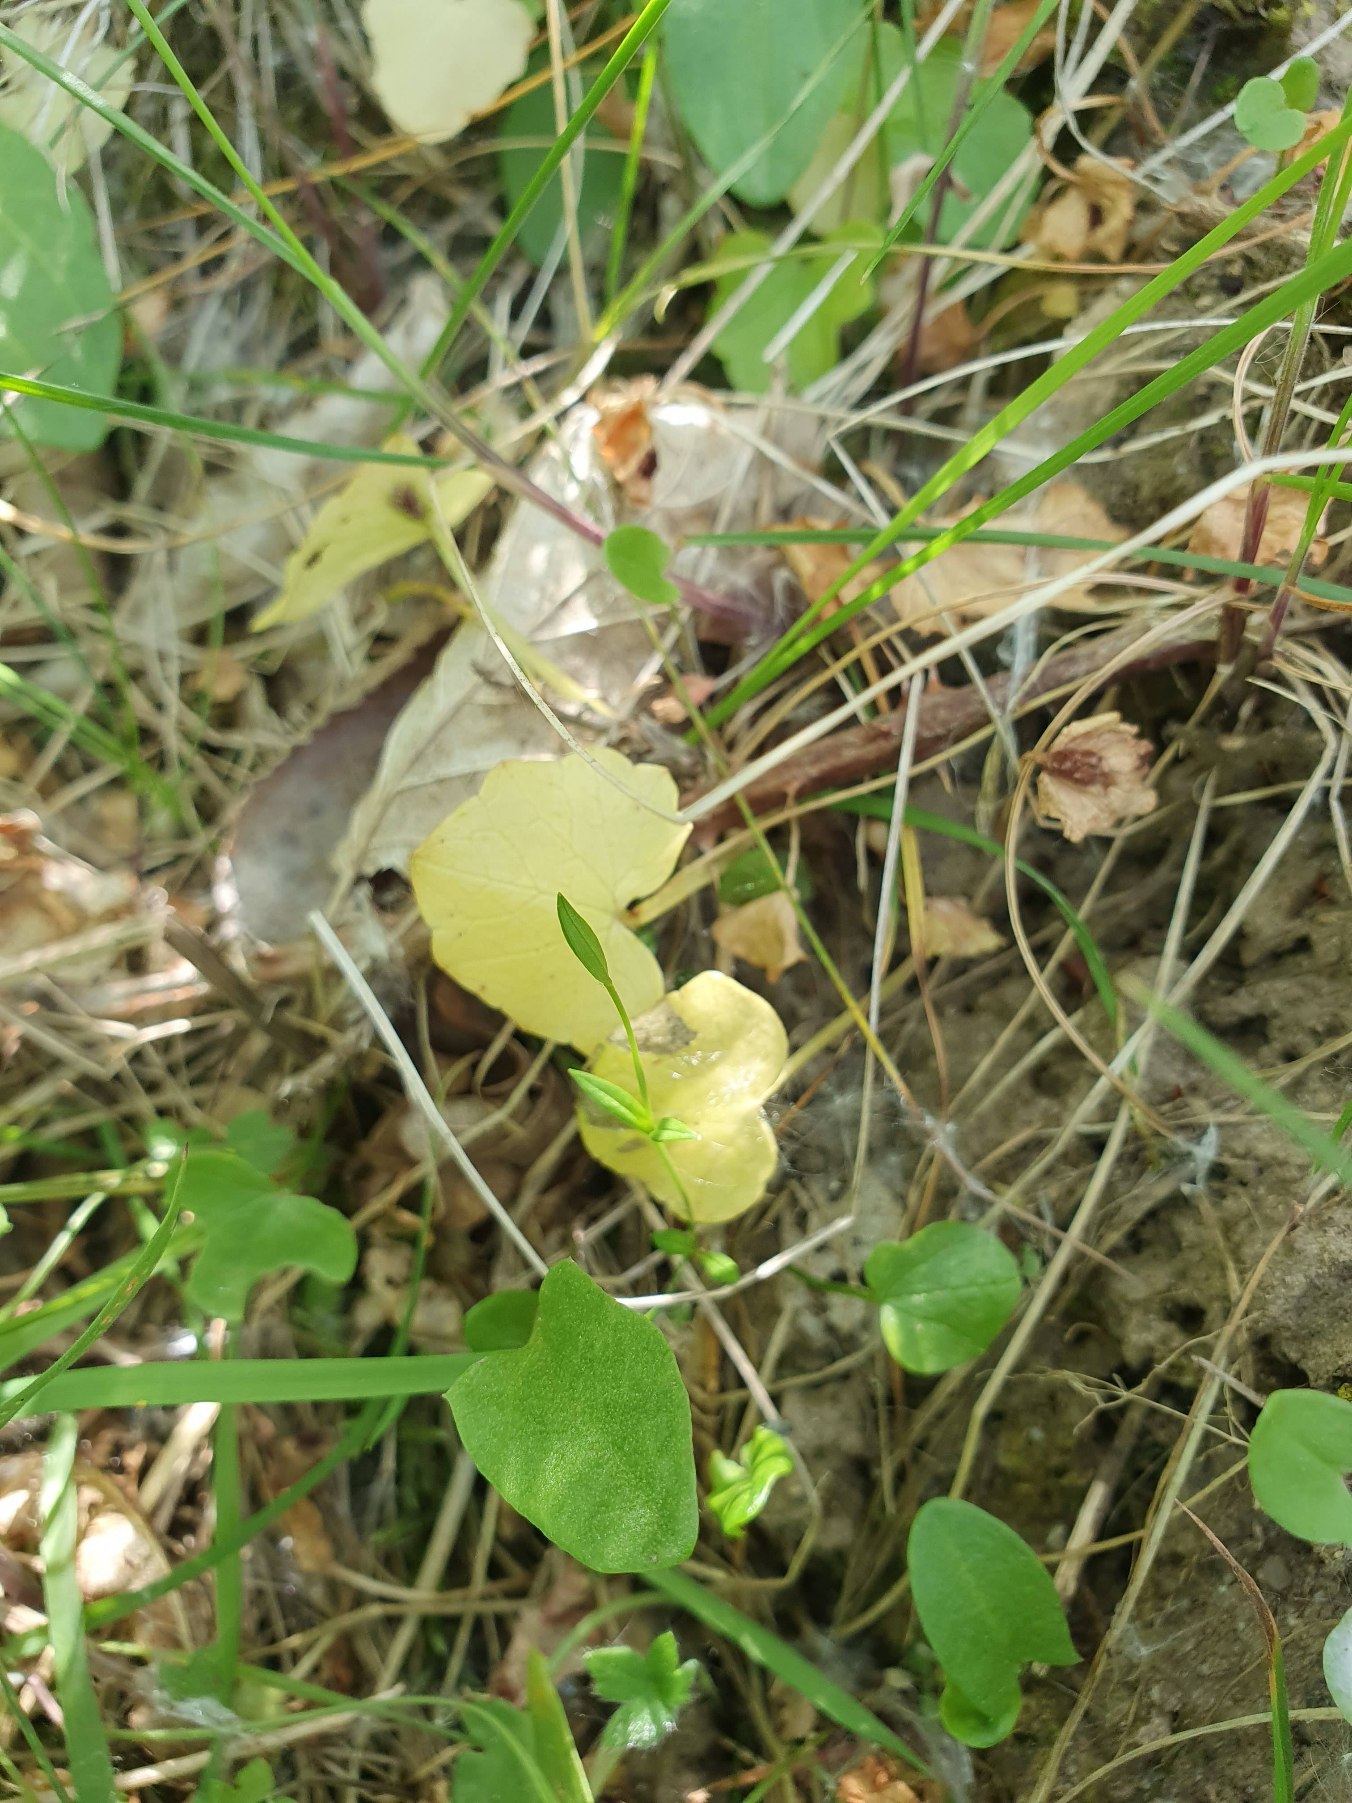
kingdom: Plantae
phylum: Tracheophyta
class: Magnoliopsida
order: Ranunculales
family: Ranunculaceae
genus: Ficaria
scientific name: Ficaria verna
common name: Vorterod
